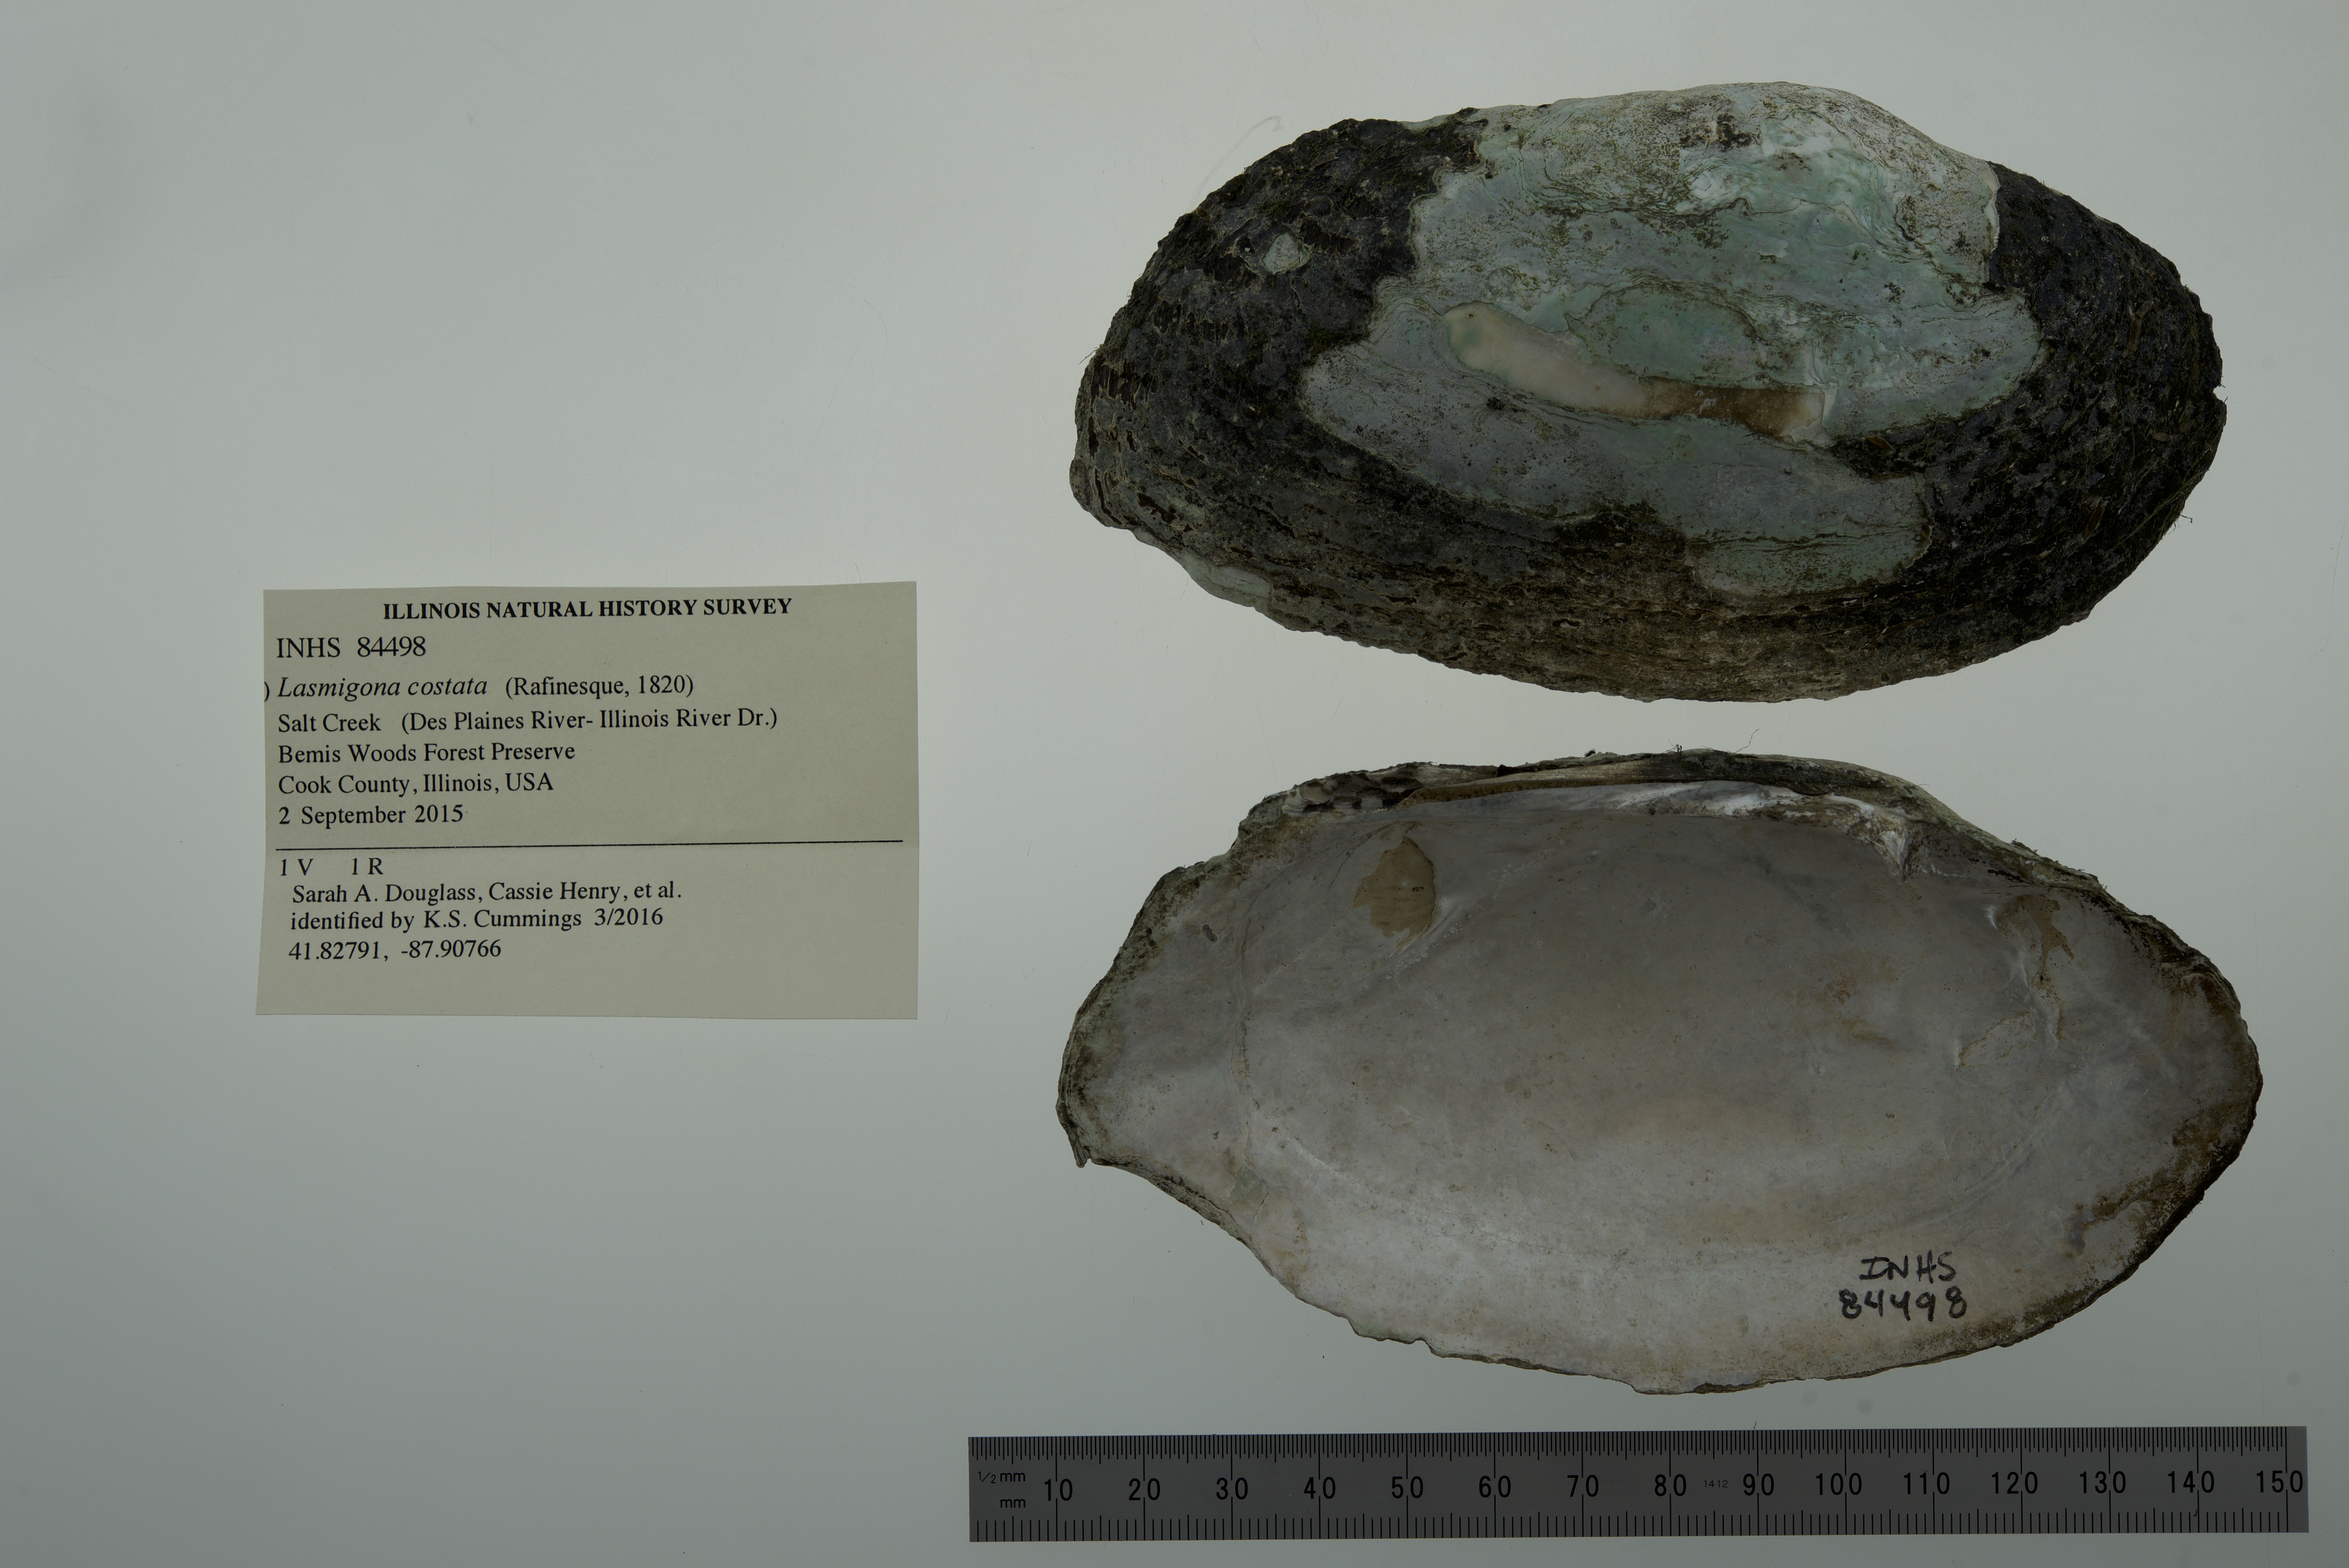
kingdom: Animalia
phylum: Mollusca
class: Bivalvia
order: Unionida
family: Unionidae
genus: Lasmigona
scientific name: Lasmigona costata
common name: Flutedshell
